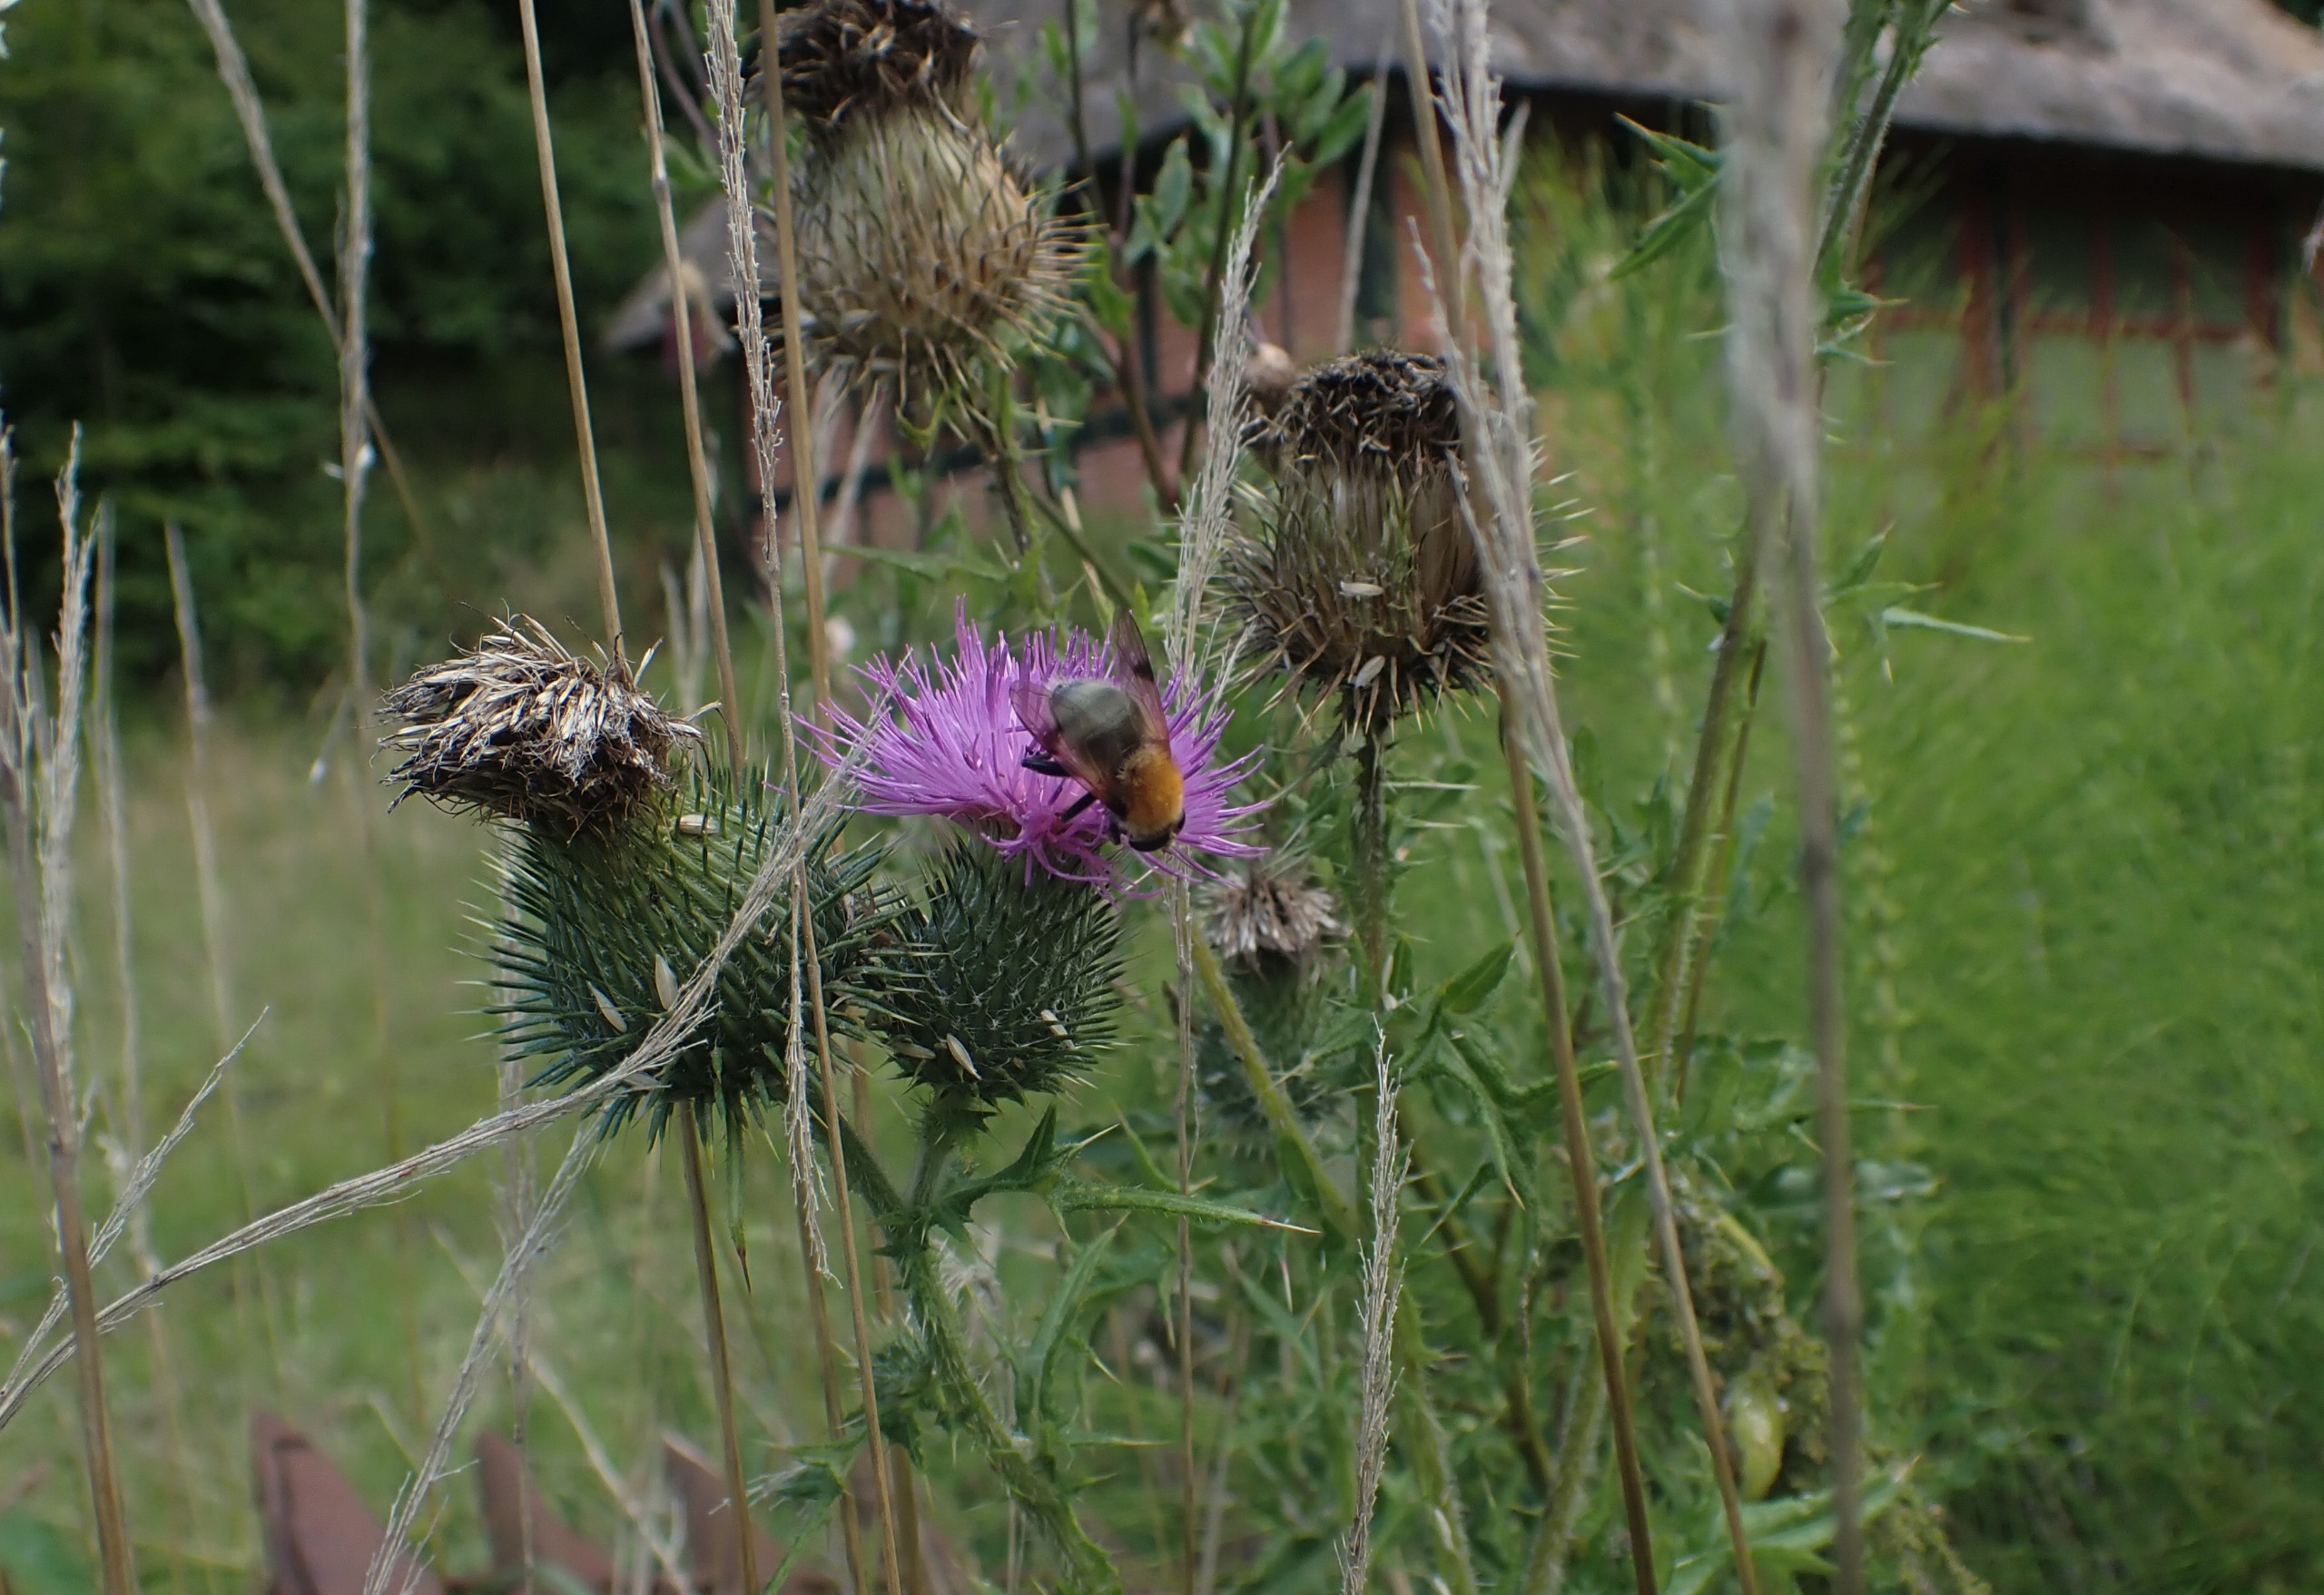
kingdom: Animalia
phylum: Arthropoda
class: Insecta
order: Diptera
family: Syrphidae
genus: Sericomyia
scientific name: Sericomyia superbiens
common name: Brun bjørnesvirreflue
